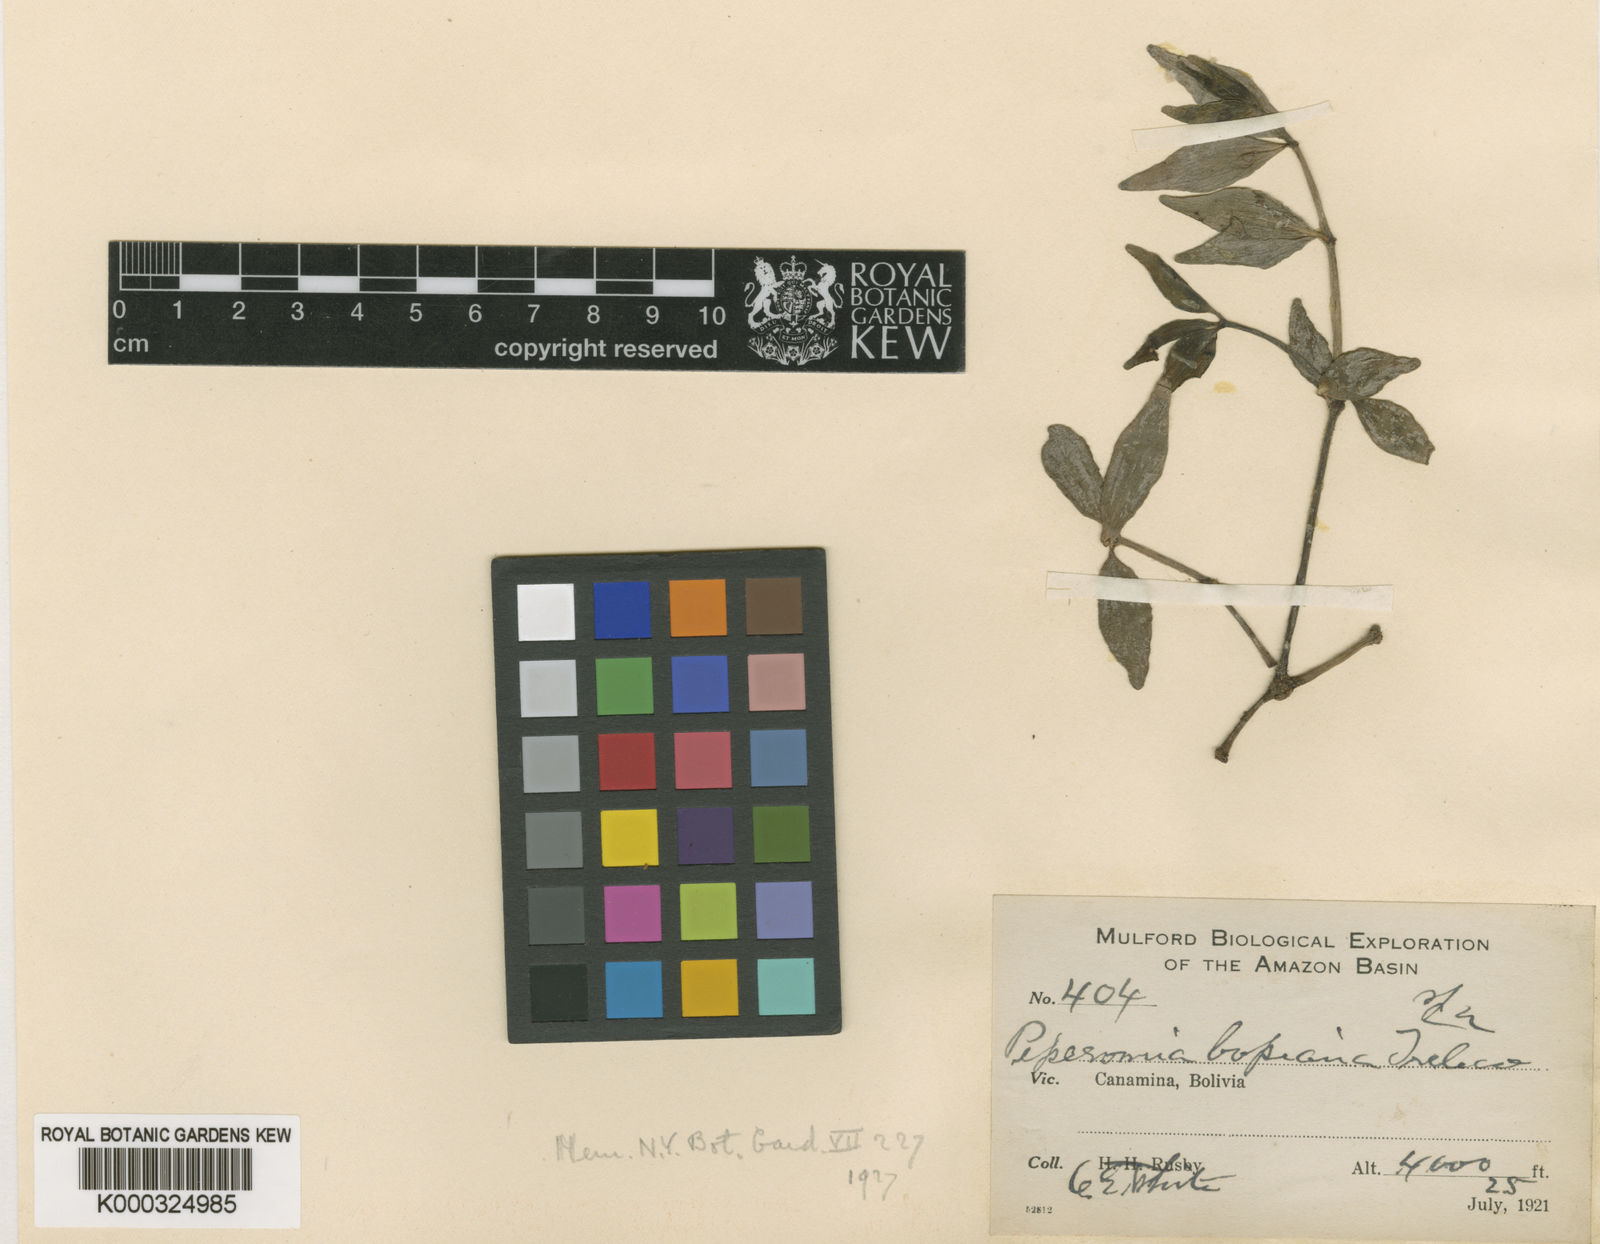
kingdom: Plantae
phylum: Tracheophyta
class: Magnoliopsida
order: Piperales
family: Piperaceae
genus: Peperomia
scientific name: Peperomia bopiana
